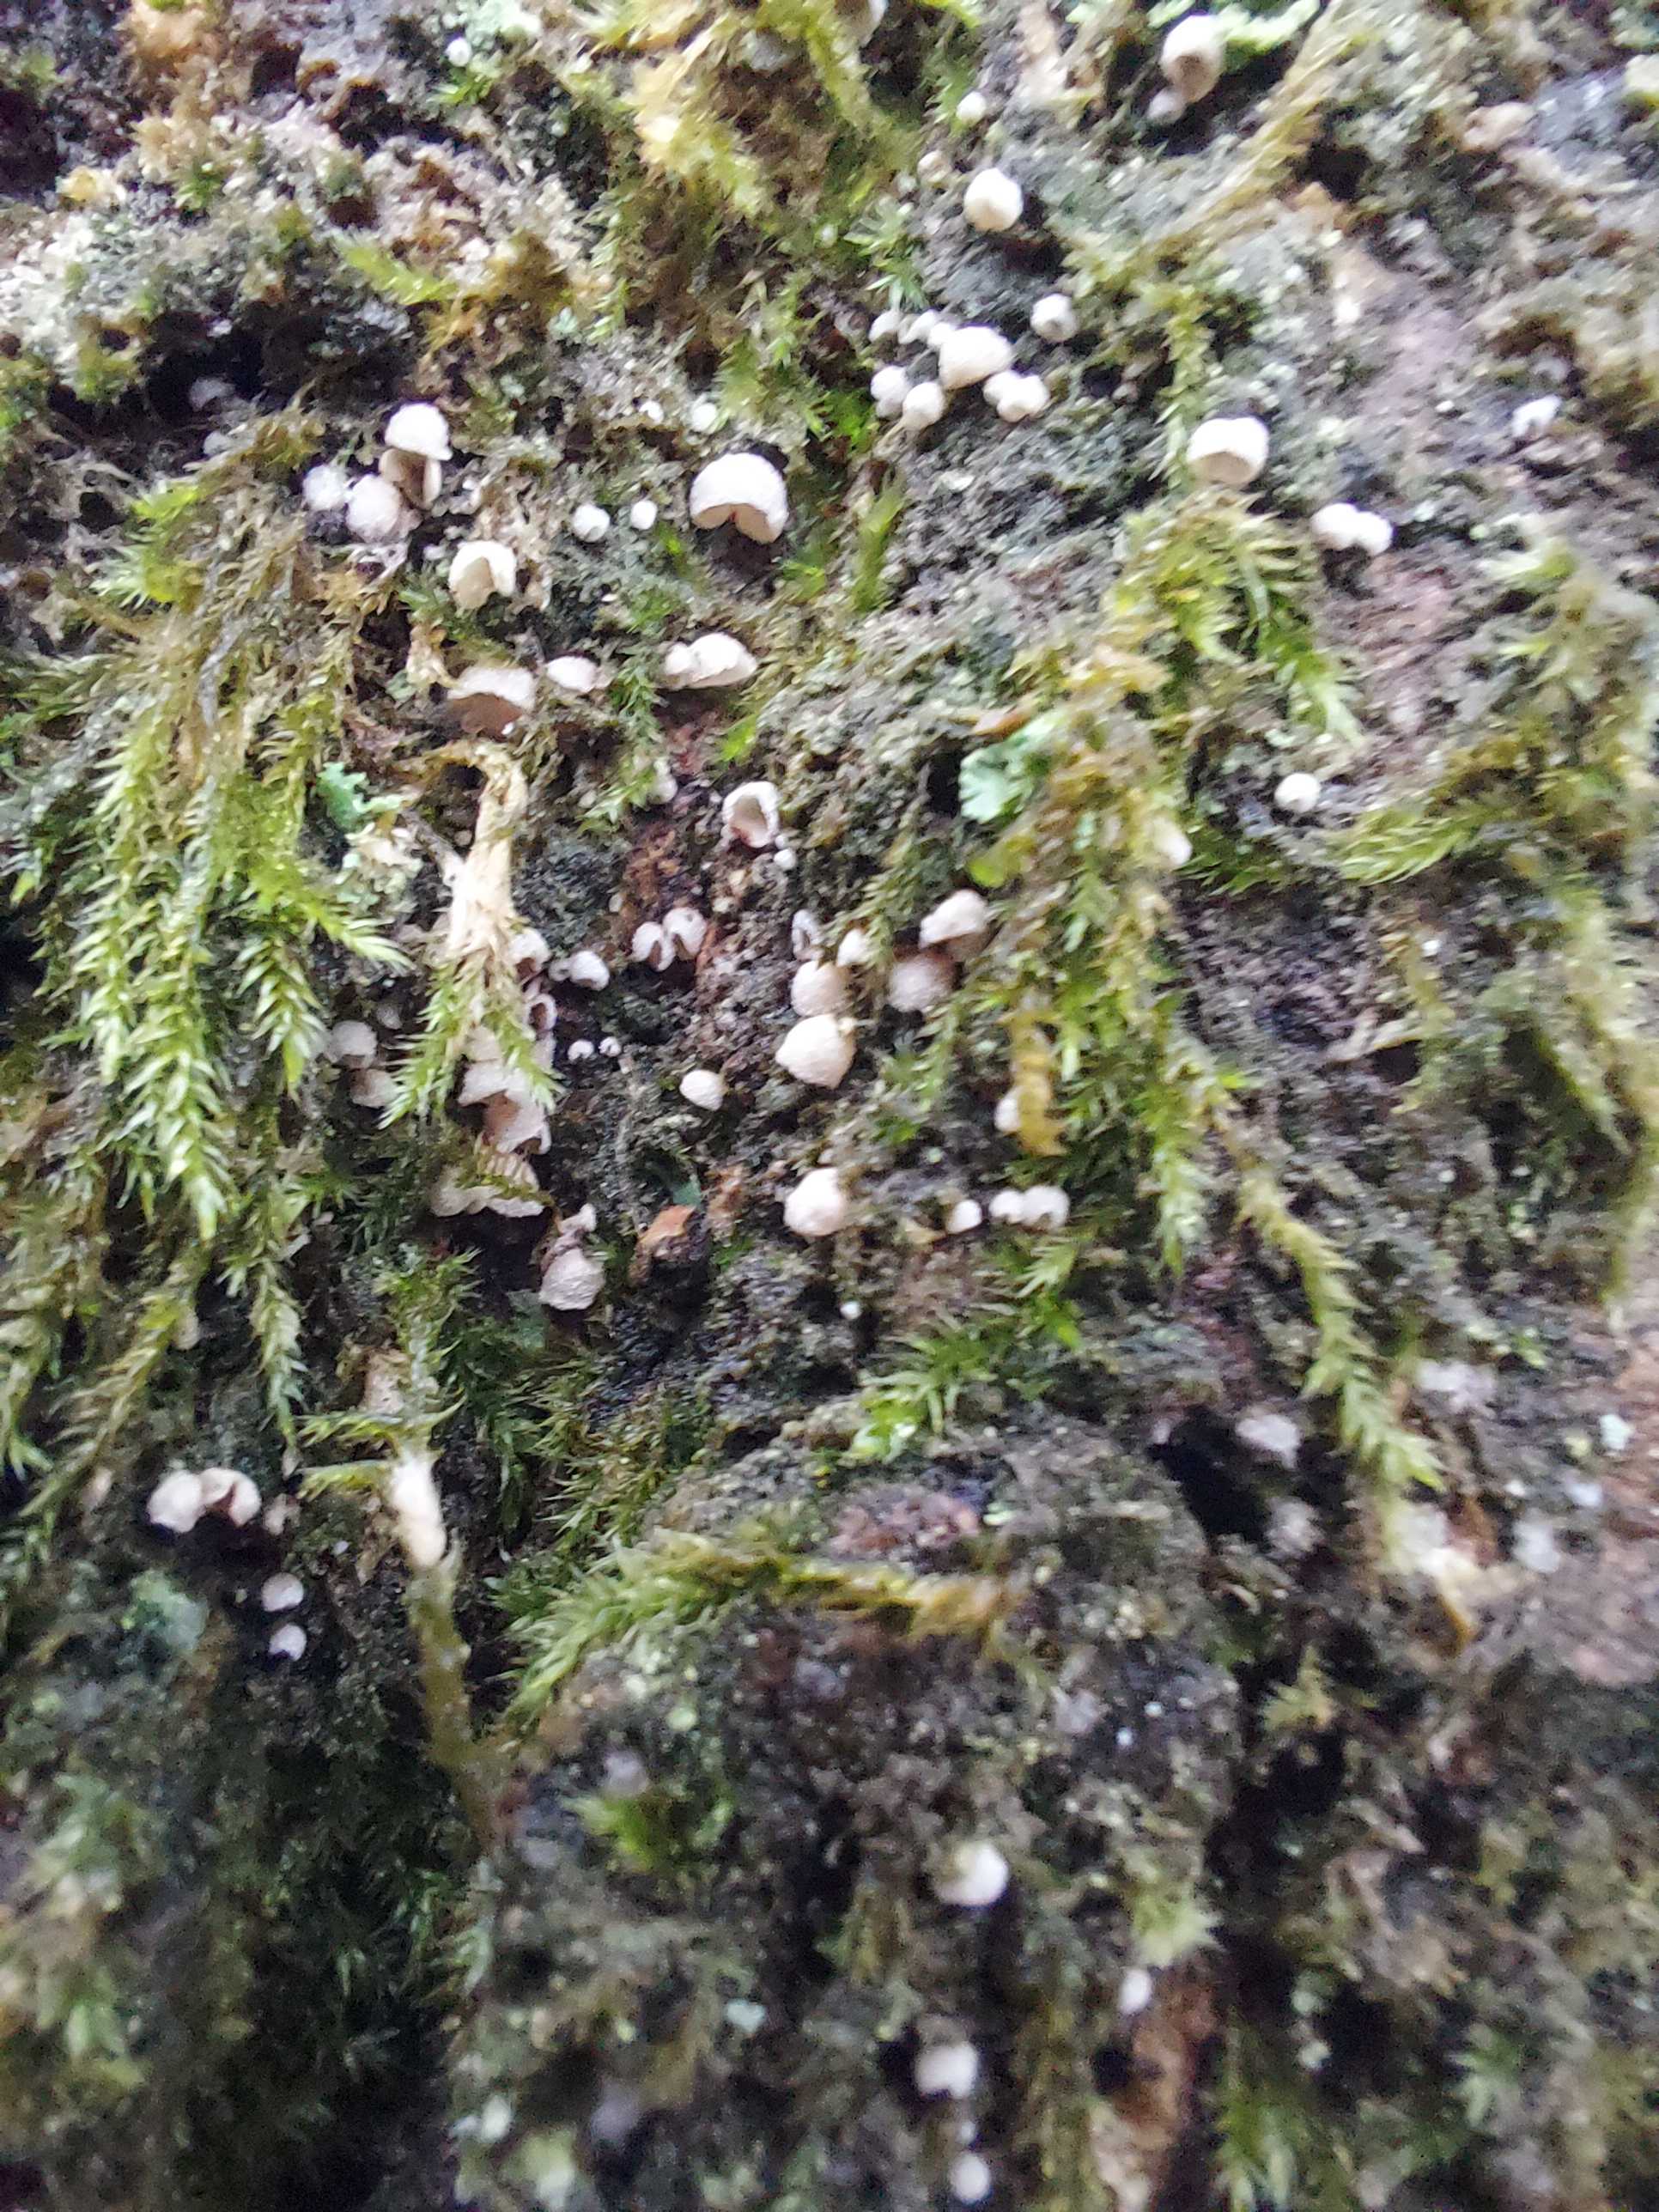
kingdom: Fungi
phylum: Basidiomycota
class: Agaricomycetes
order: Agaricales
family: Chromocyphellaceae
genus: Chromocyphella
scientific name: Chromocyphella muscicola
